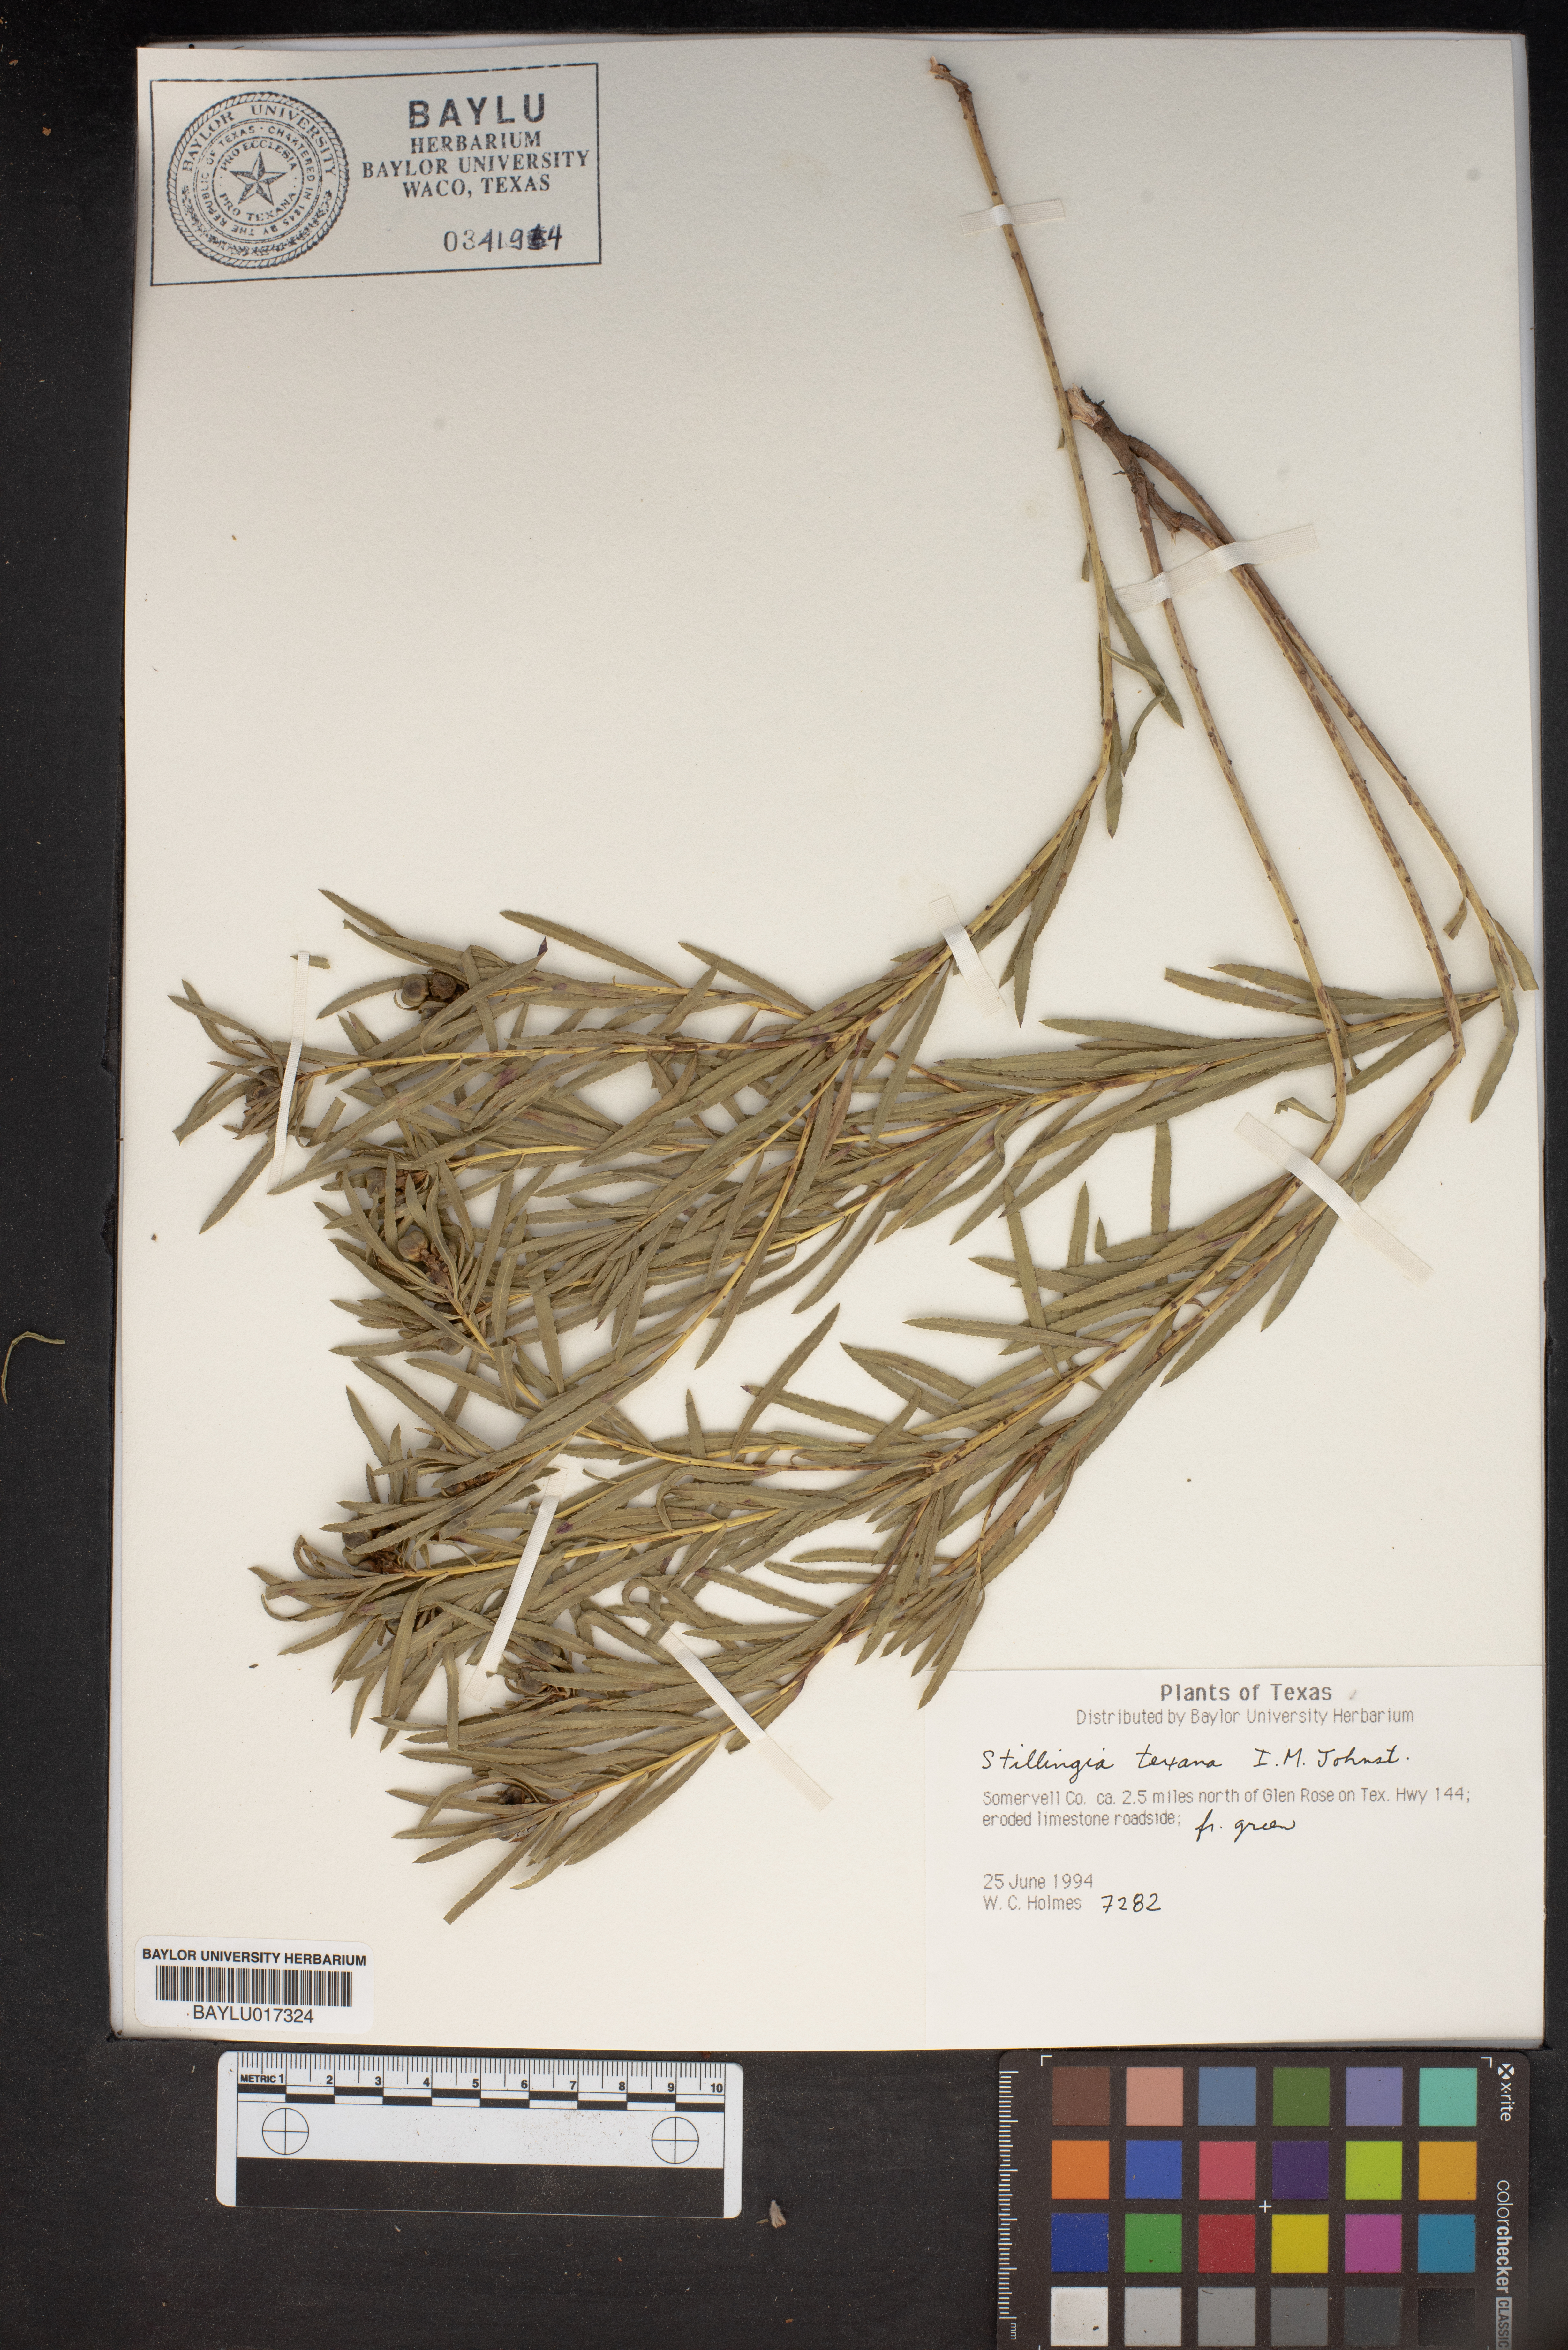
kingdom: Plantae
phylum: Tracheophyta
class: Magnoliopsida
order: Malpighiales
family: Euphorbiaceae
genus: Stillingia
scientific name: Stillingia texana
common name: Texas stillingia
